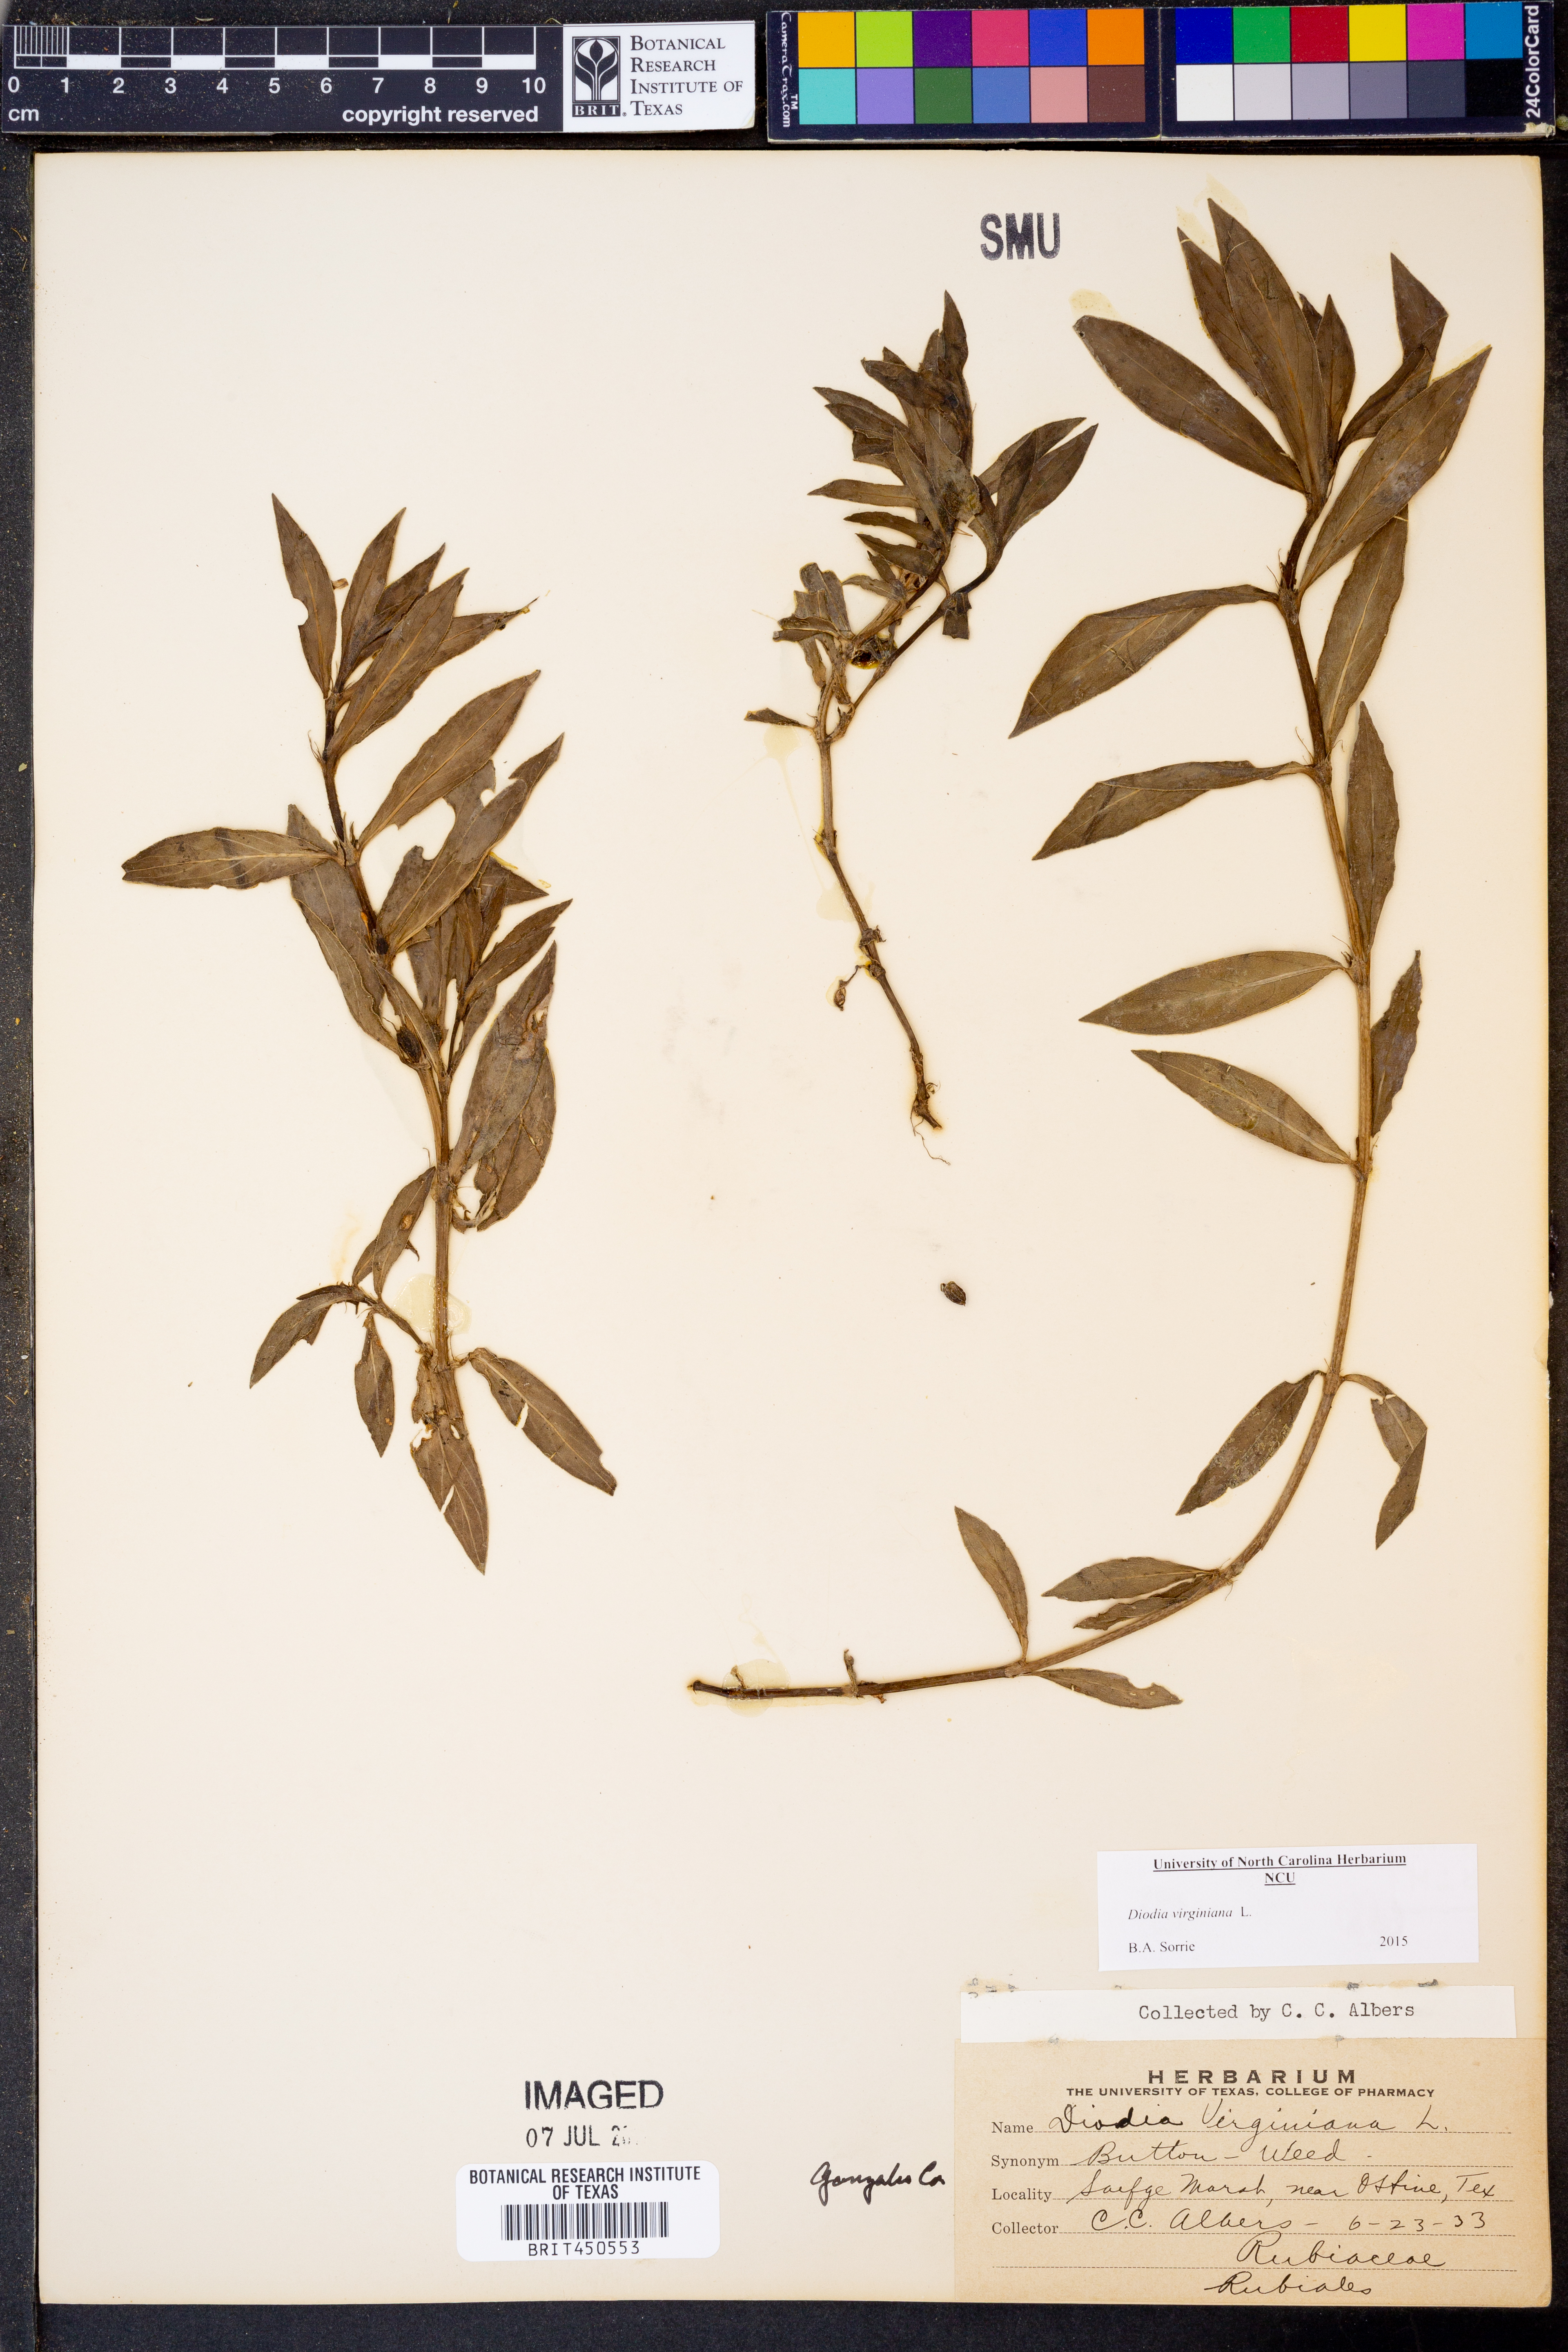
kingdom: Plantae
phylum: Tracheophyta
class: Magnoliopsida
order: Gentianales
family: Rubiaceae
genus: Diodia
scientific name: Diodia virginiana
